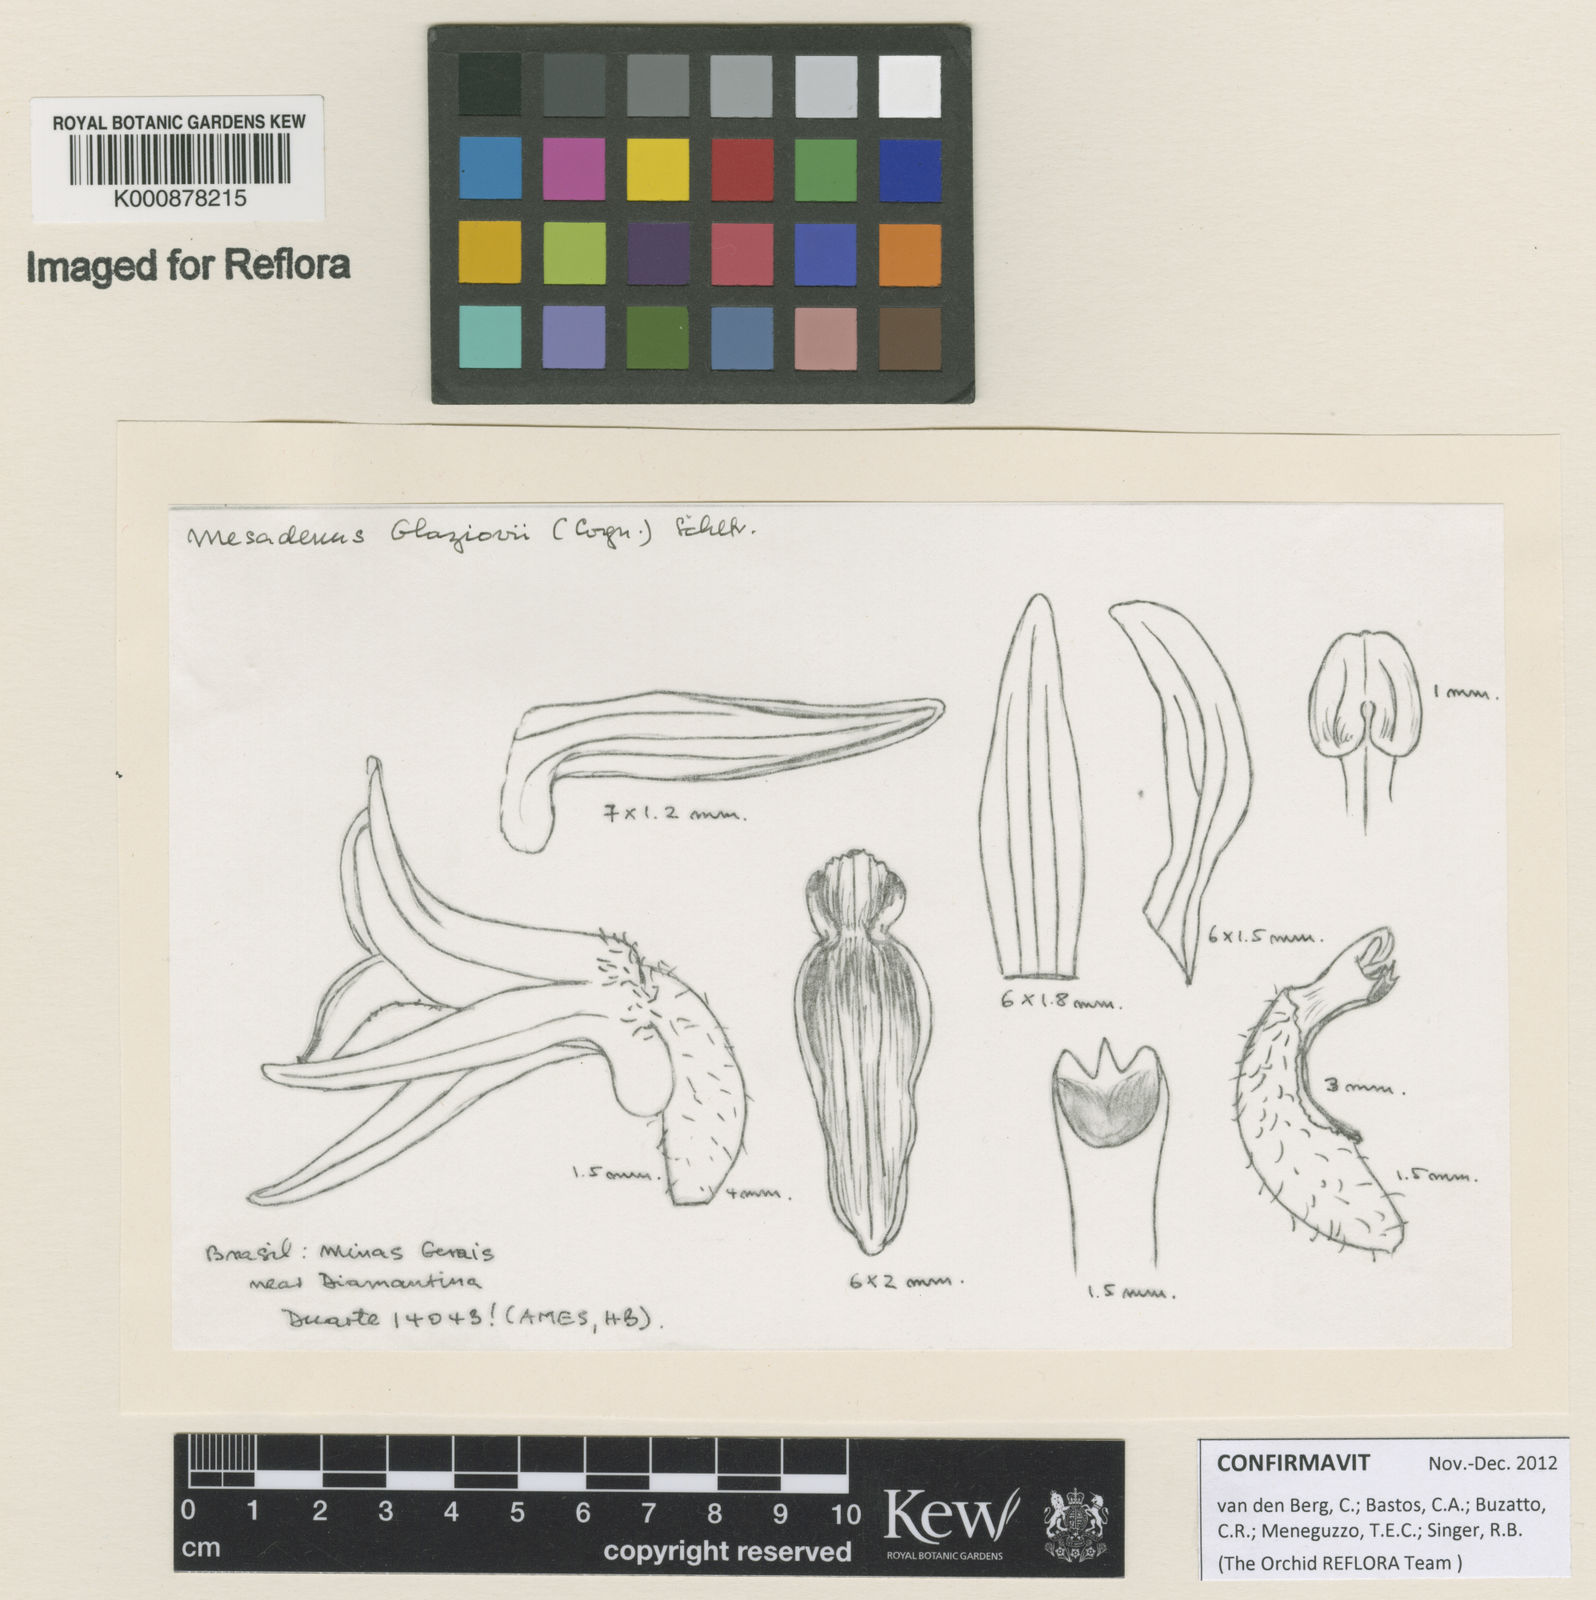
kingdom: Plantae
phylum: Tracheophyta
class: Liliopsida
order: Asparagales
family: Orchidaceae
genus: Espinhassoa
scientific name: Espinhassoa glaziovii
